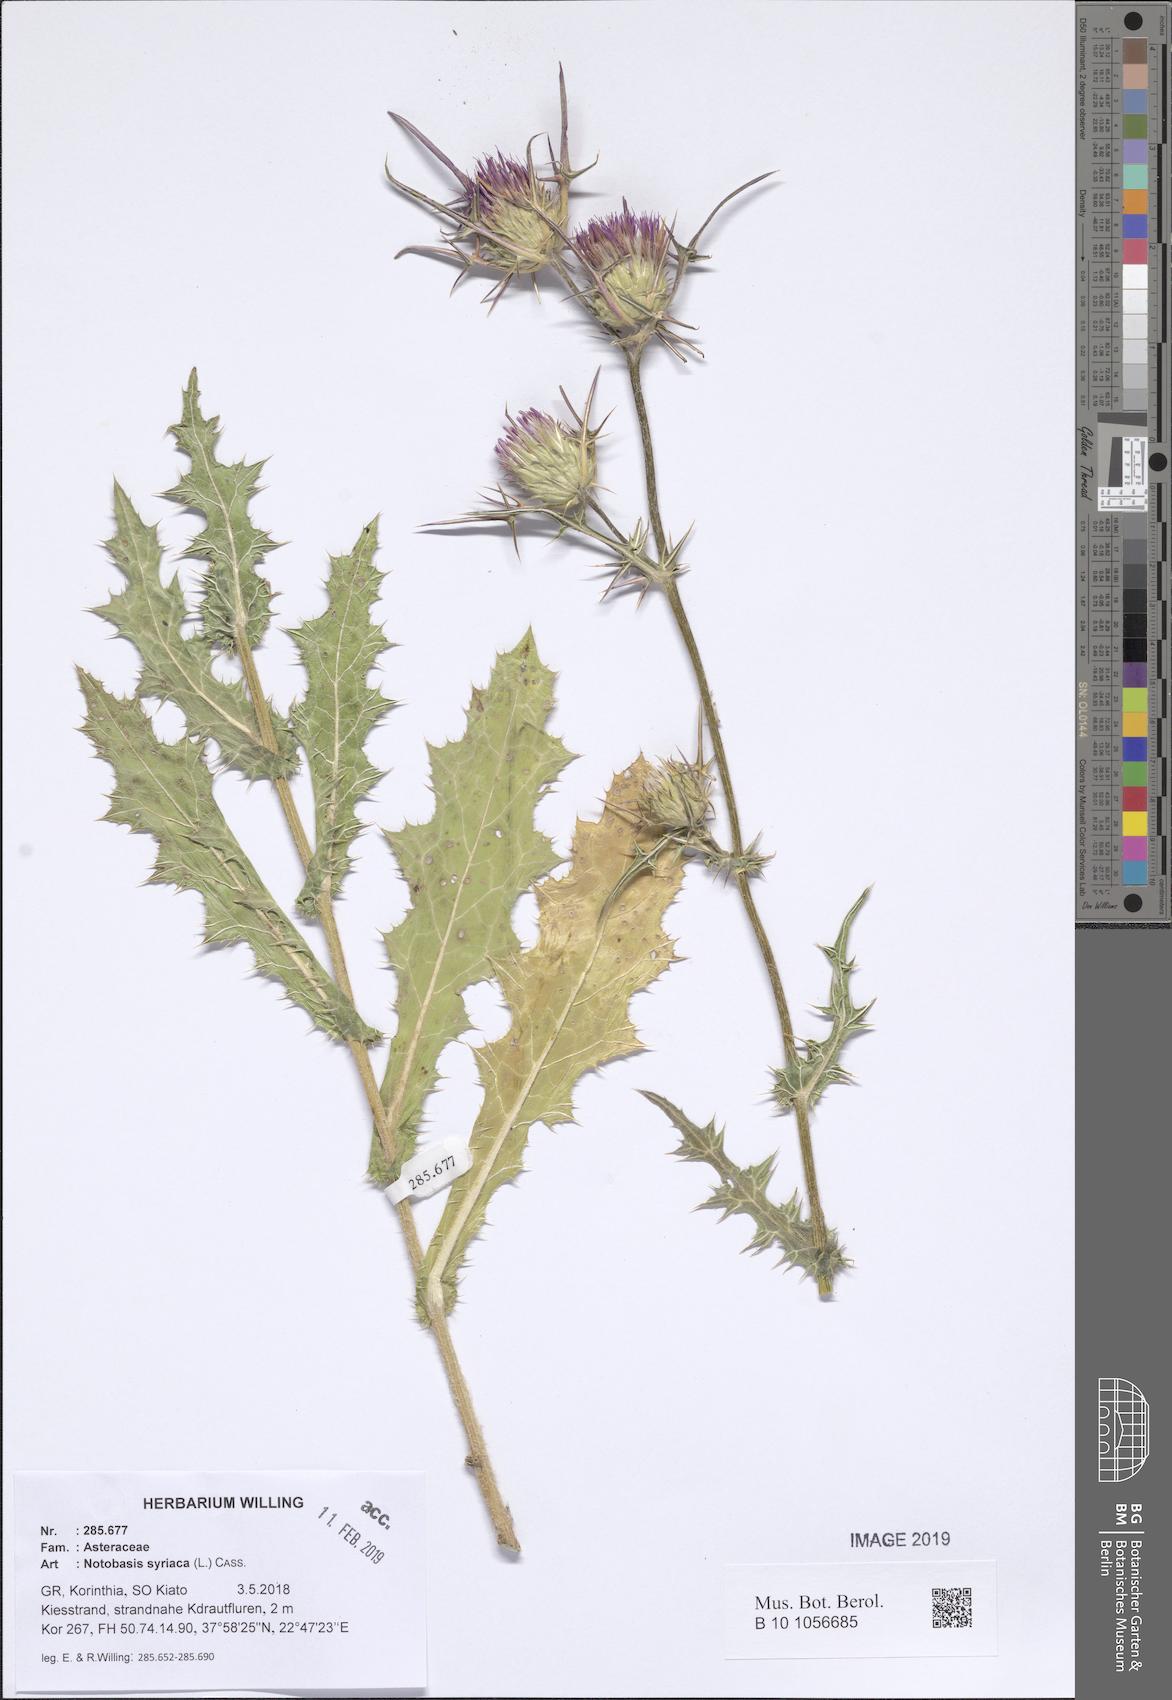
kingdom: Plantae
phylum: Tracheophyta
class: Magnoliopsida
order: Asterales
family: Asteraceae
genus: Notobasis
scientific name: Notobasis syriaca
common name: Syrian thistle
